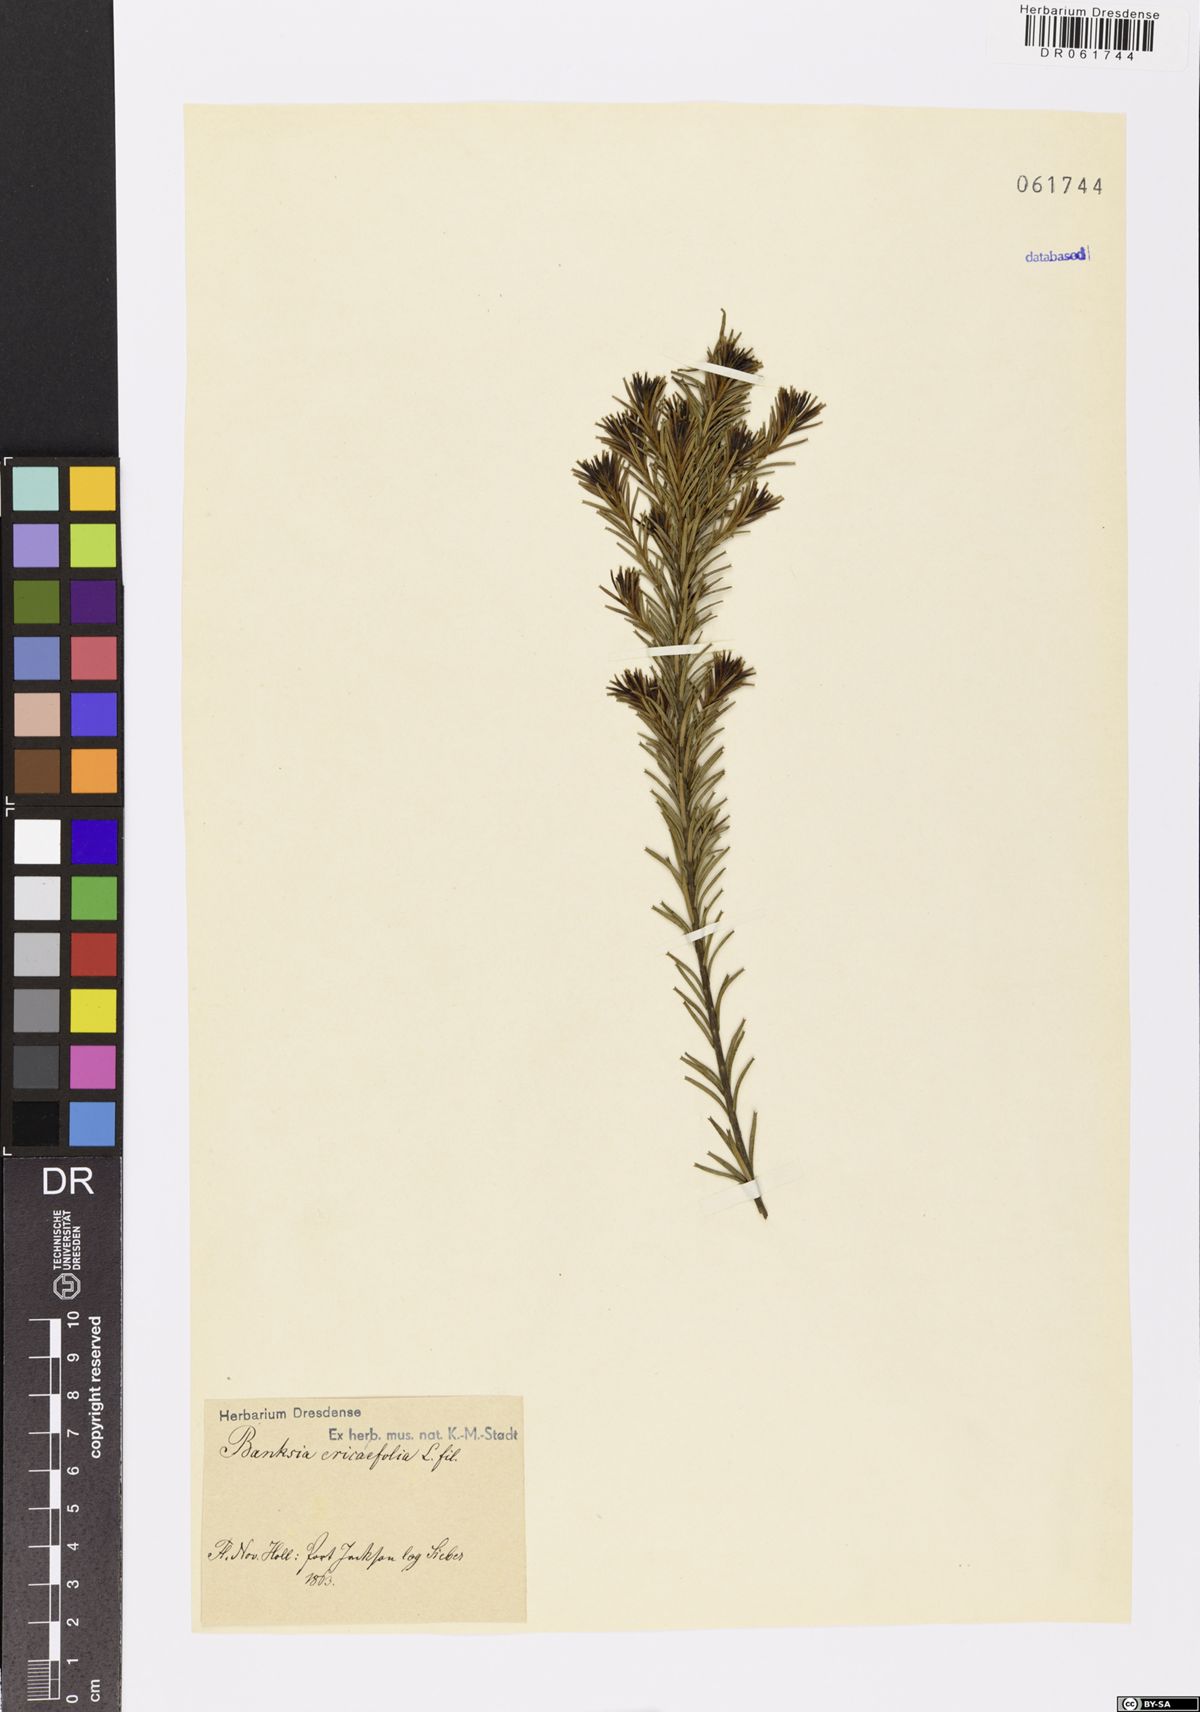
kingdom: Plantae
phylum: Tracheophyta
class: Magnoliopsida
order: Proteales
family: Proteaceae
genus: Banksia
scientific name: Banksia ericifolia
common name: Heath-leaf banksia
